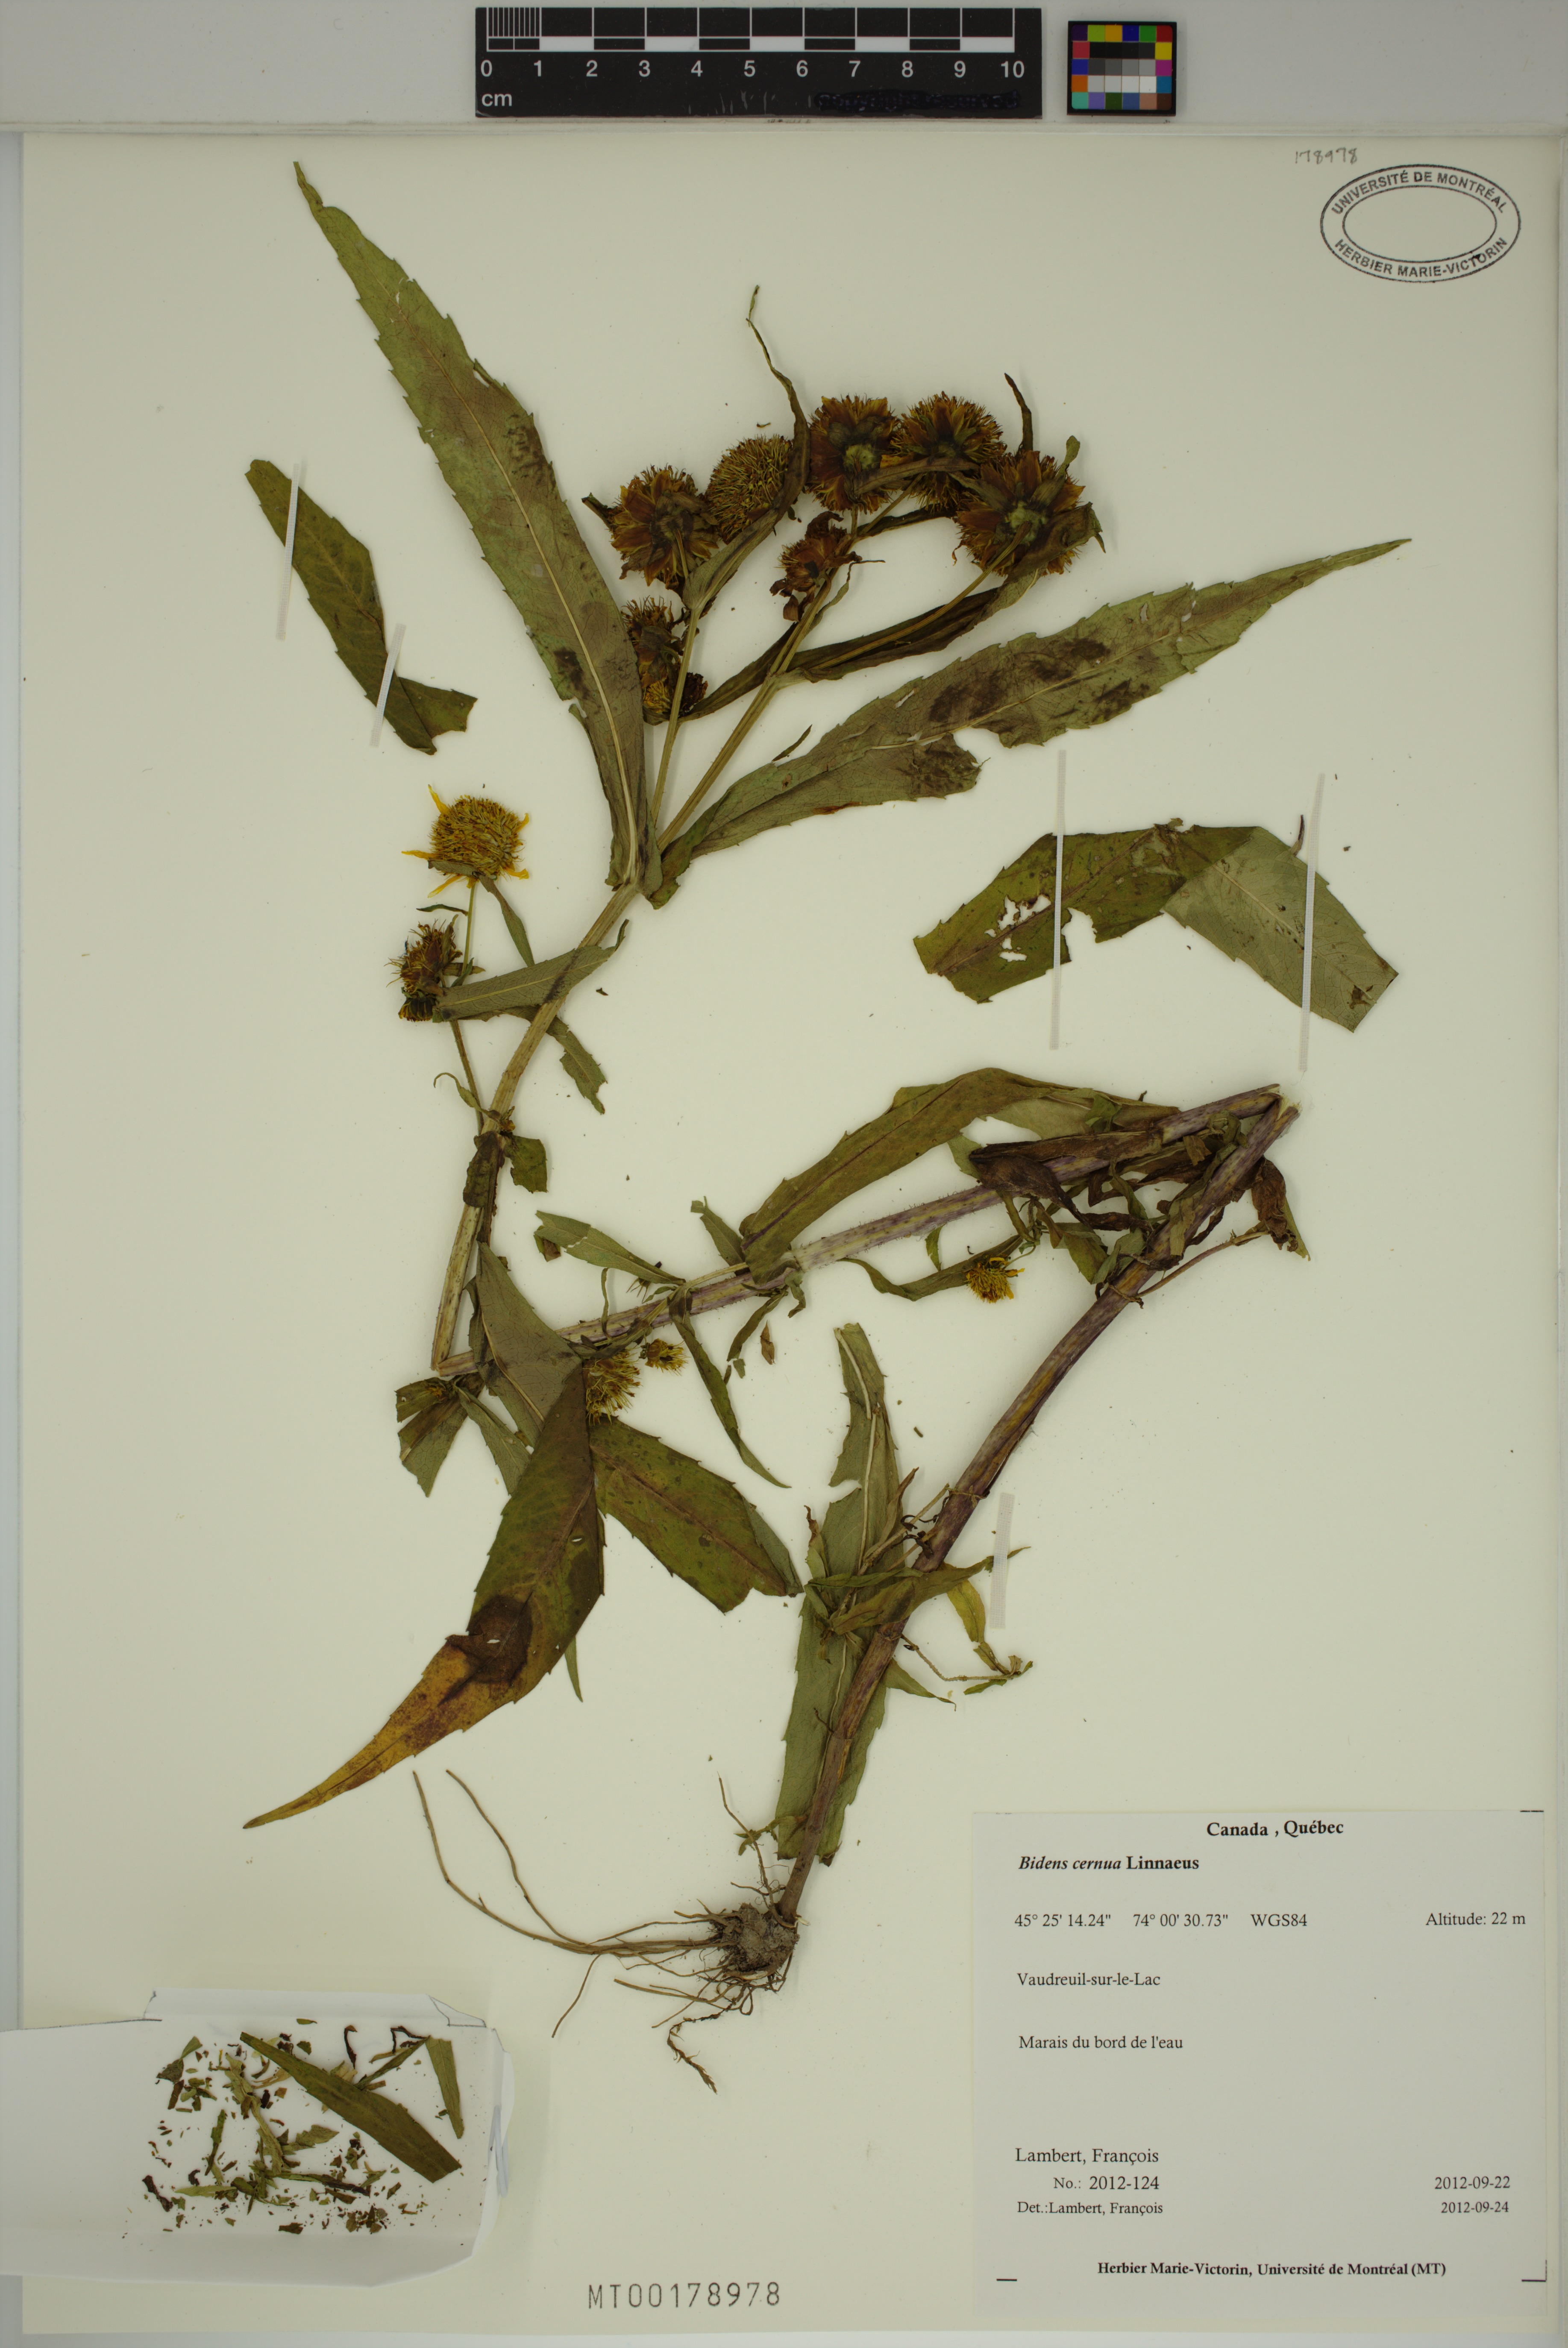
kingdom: Plantae
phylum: Tracheophyta
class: Magnoliopsida
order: Asterales
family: Asteraceae
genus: Bidens
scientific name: Bidens cernua
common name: Nodding bur-marigold
